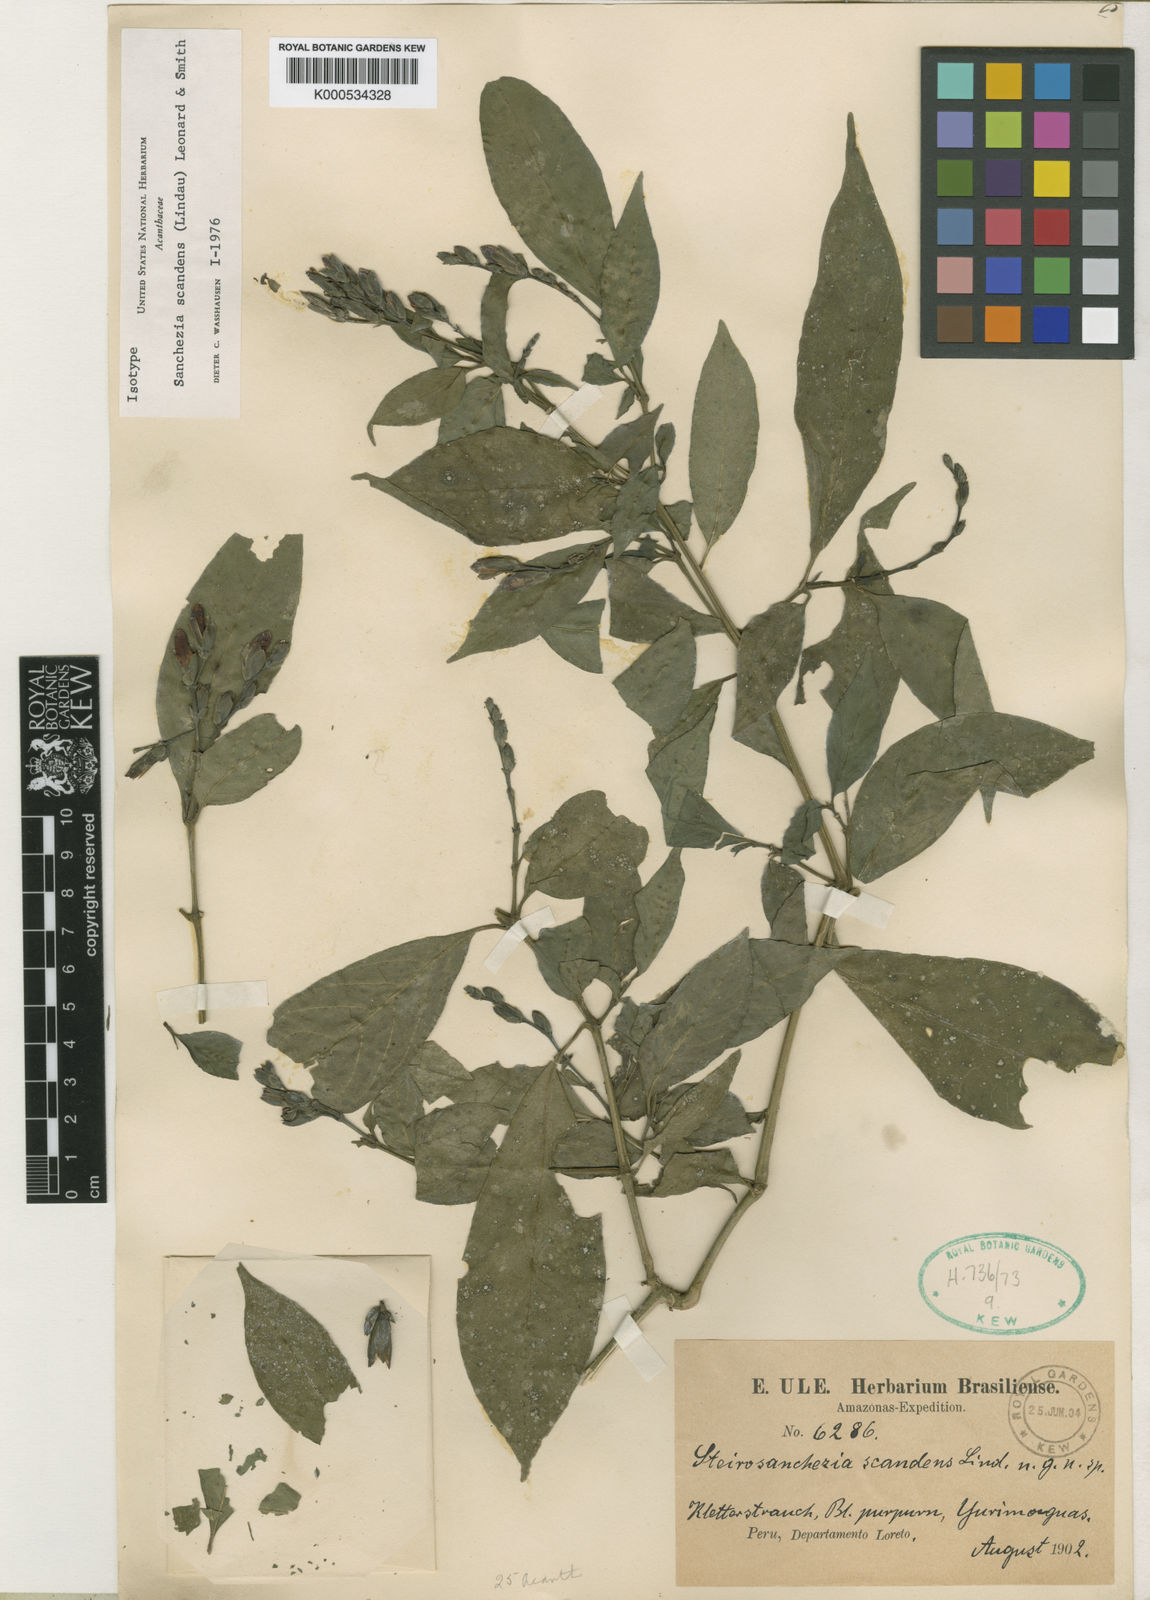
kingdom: Plantae
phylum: Tracheophyta
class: Magnoliopsida
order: Lamiales
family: Acanthaceae
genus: Sanchezia
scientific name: Sanchezia scandens
